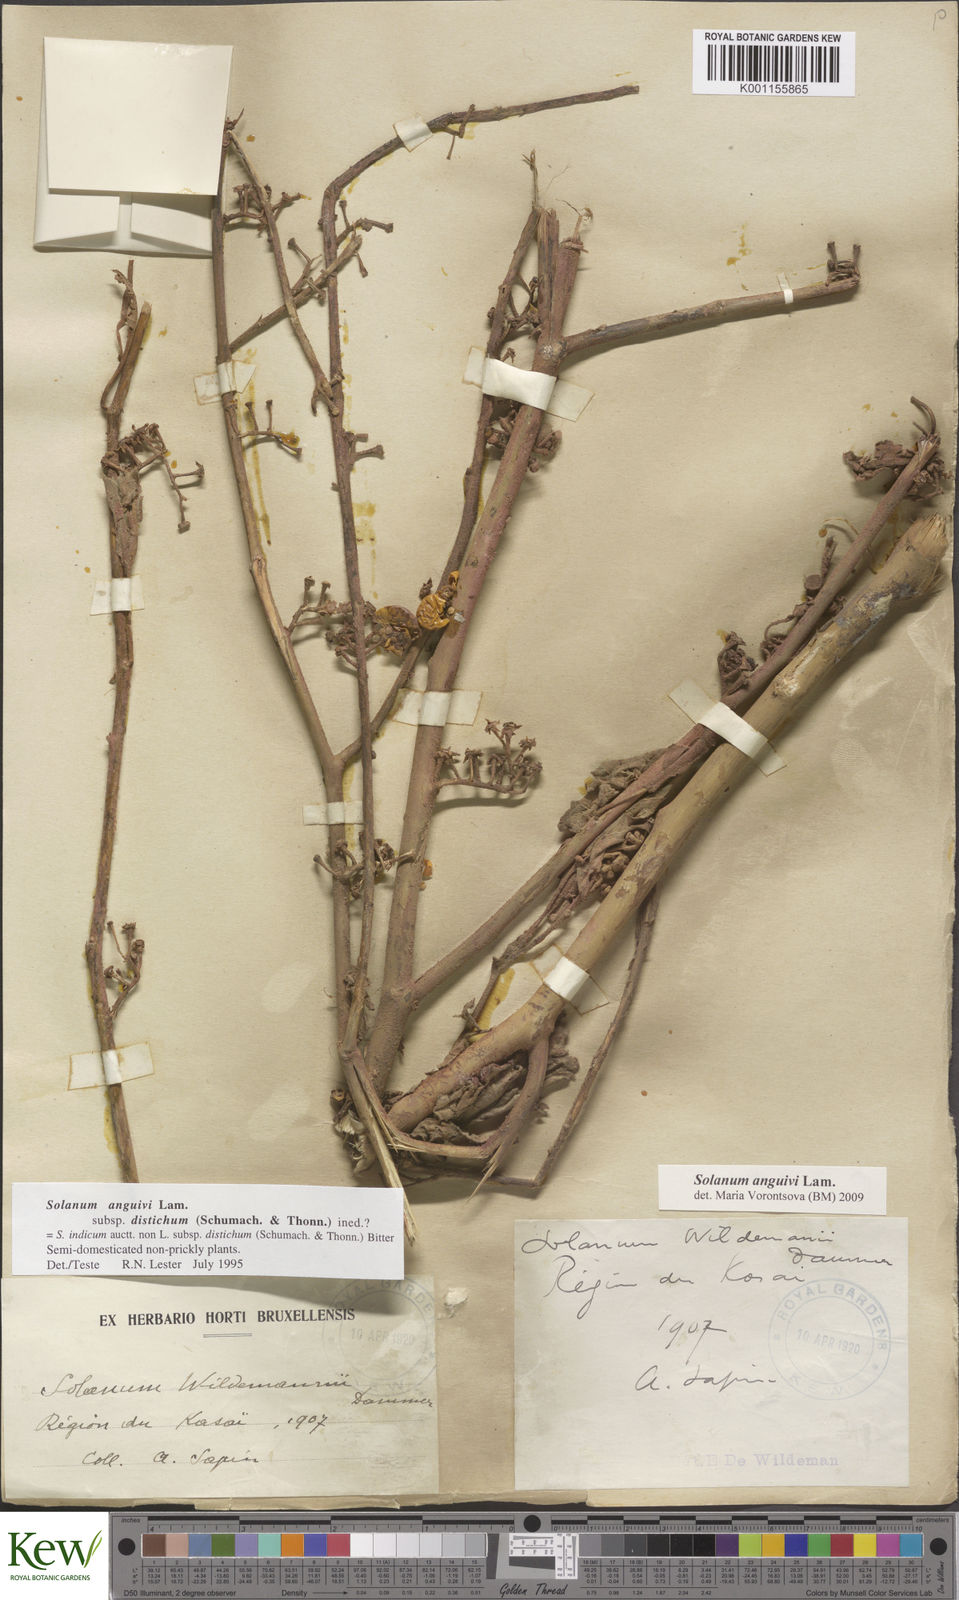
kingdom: Plantae
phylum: Tracheophyta
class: Magnoliopsida
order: Solanales
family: Solanaceae
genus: Solanum
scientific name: Solanum anguivi
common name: Forest bitterberry
